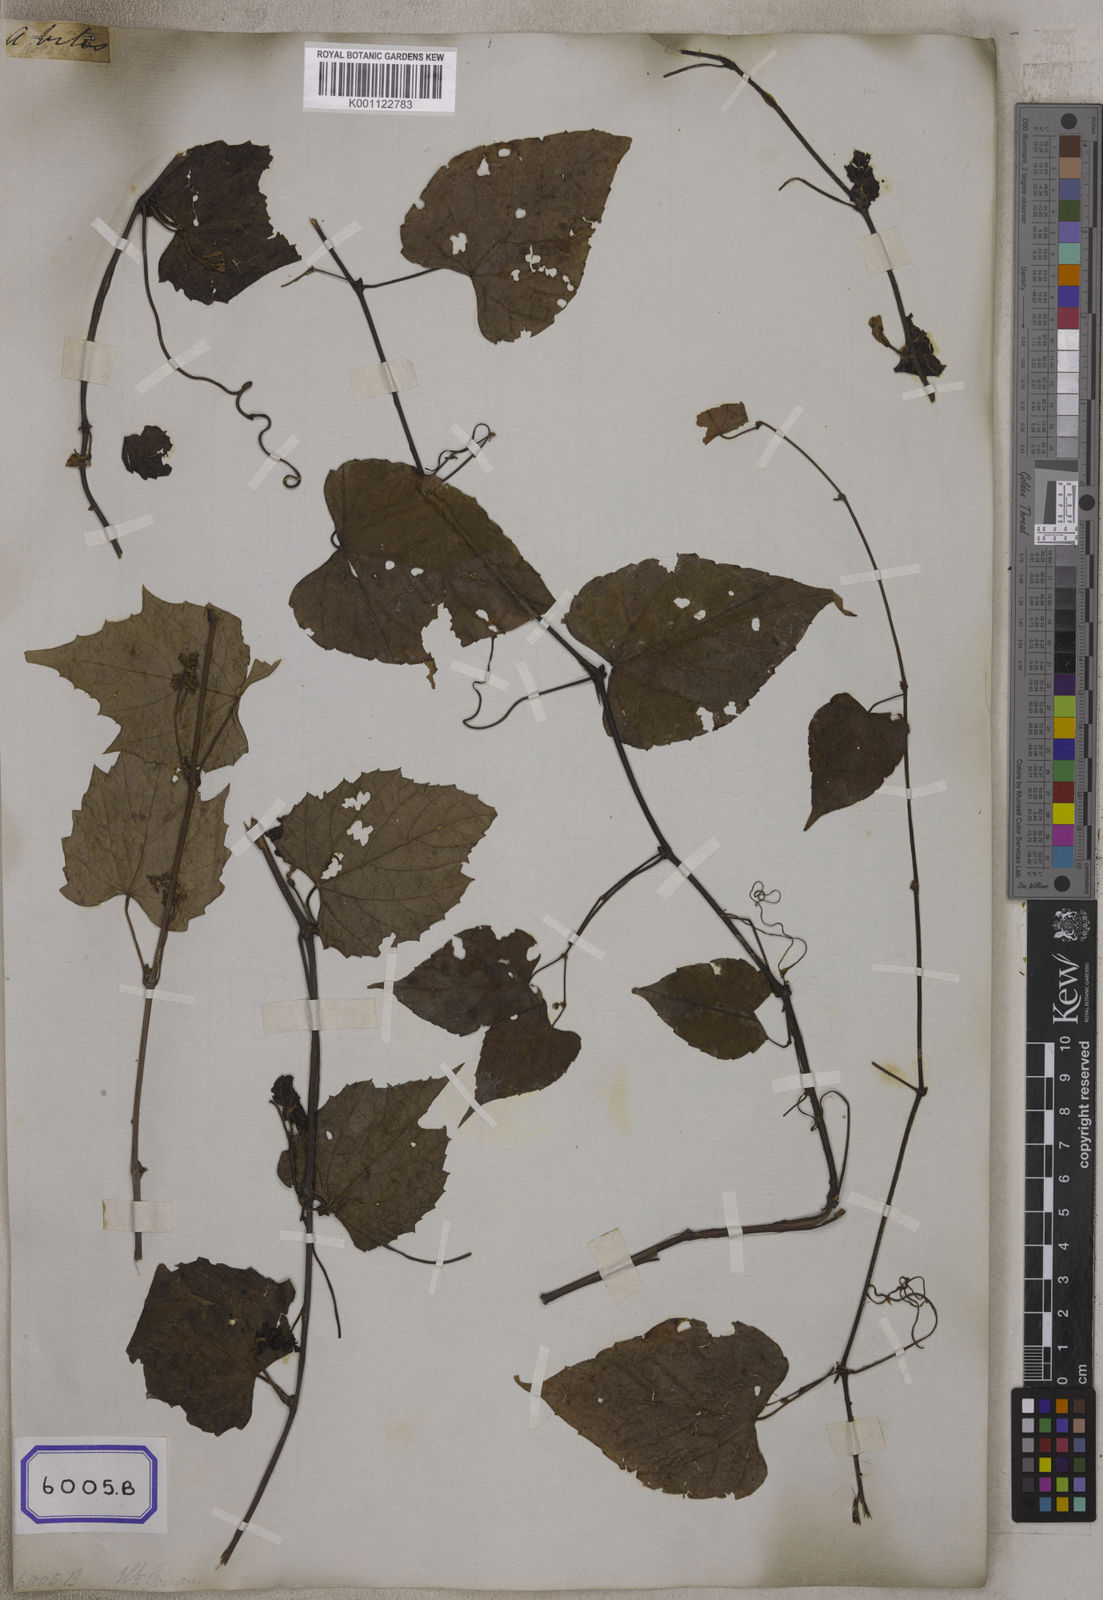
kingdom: Plantae
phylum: Tracheophyta
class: Magnoliopsida
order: Vitales
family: Vitaceae
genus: Vitis
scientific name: Vitis flexuosa
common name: Creeping grape
